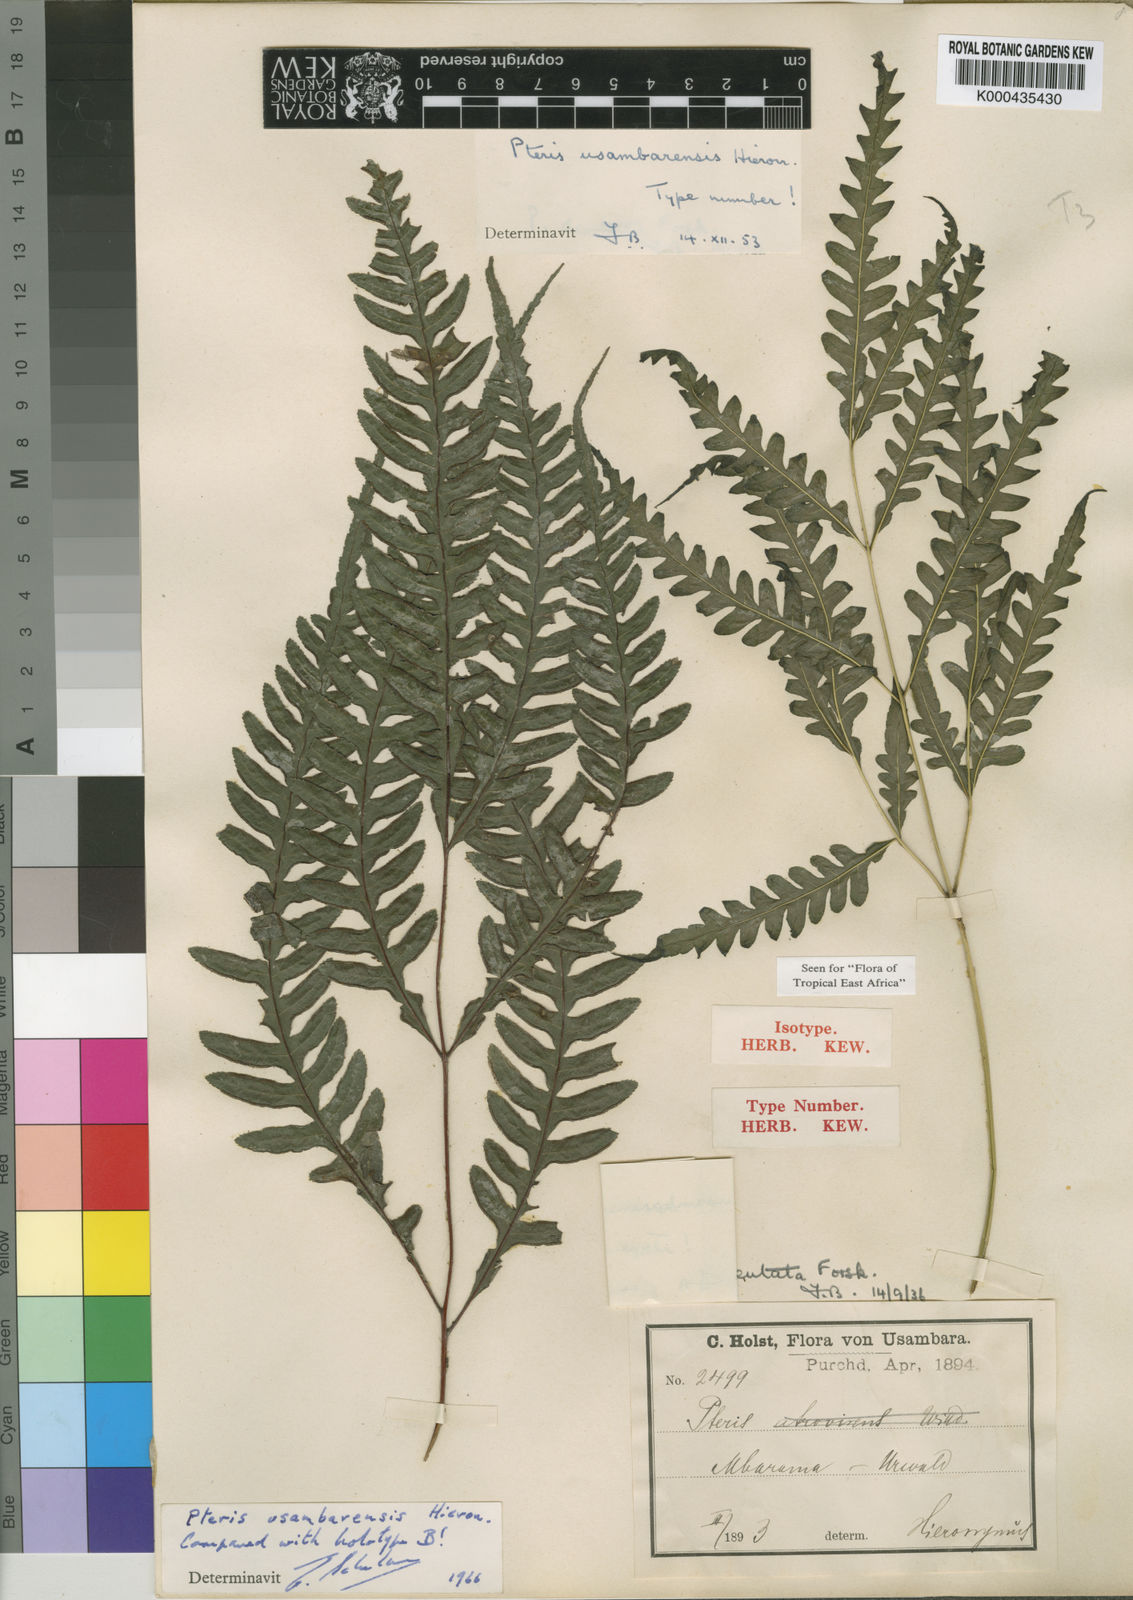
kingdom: Plantae
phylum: Tracheophyta
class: Polypodiopsida
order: Polypodiales
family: Pteridaceae
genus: Pteris
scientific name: Pteris usambarensis
